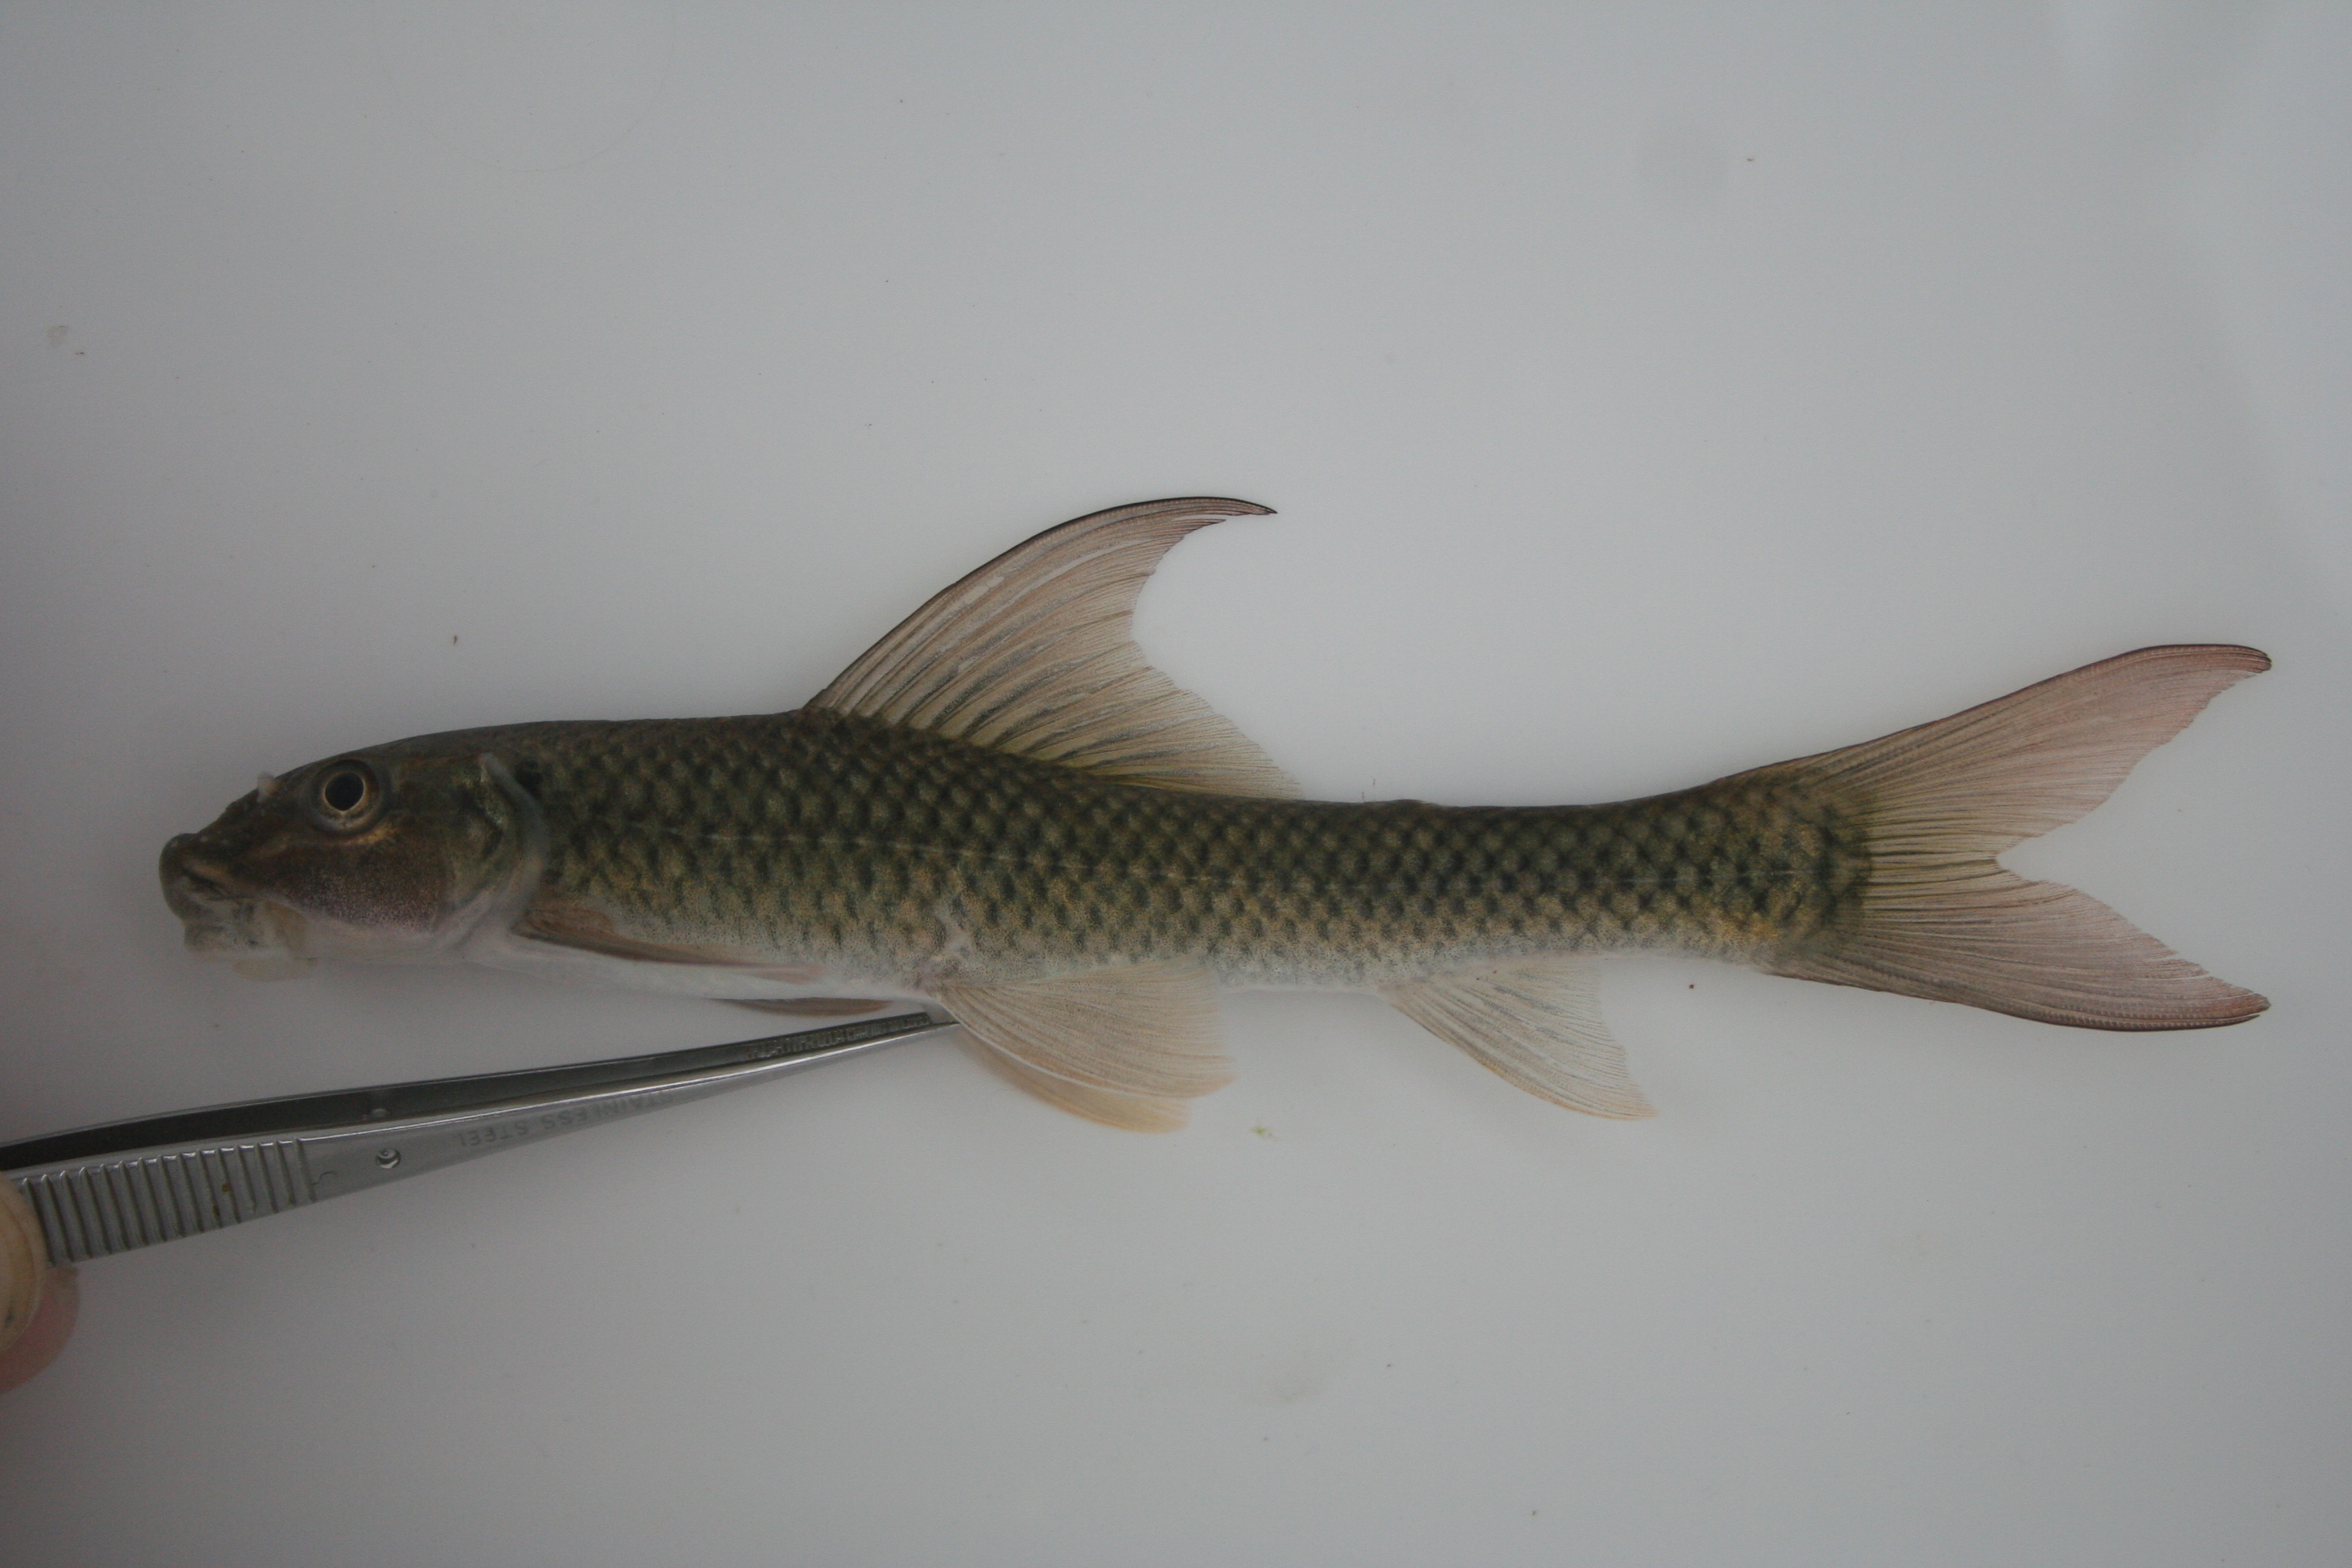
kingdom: Animalia
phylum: Chordata
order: Cypriniformes
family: Cyprinidae
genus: Labeo
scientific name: Labeo
